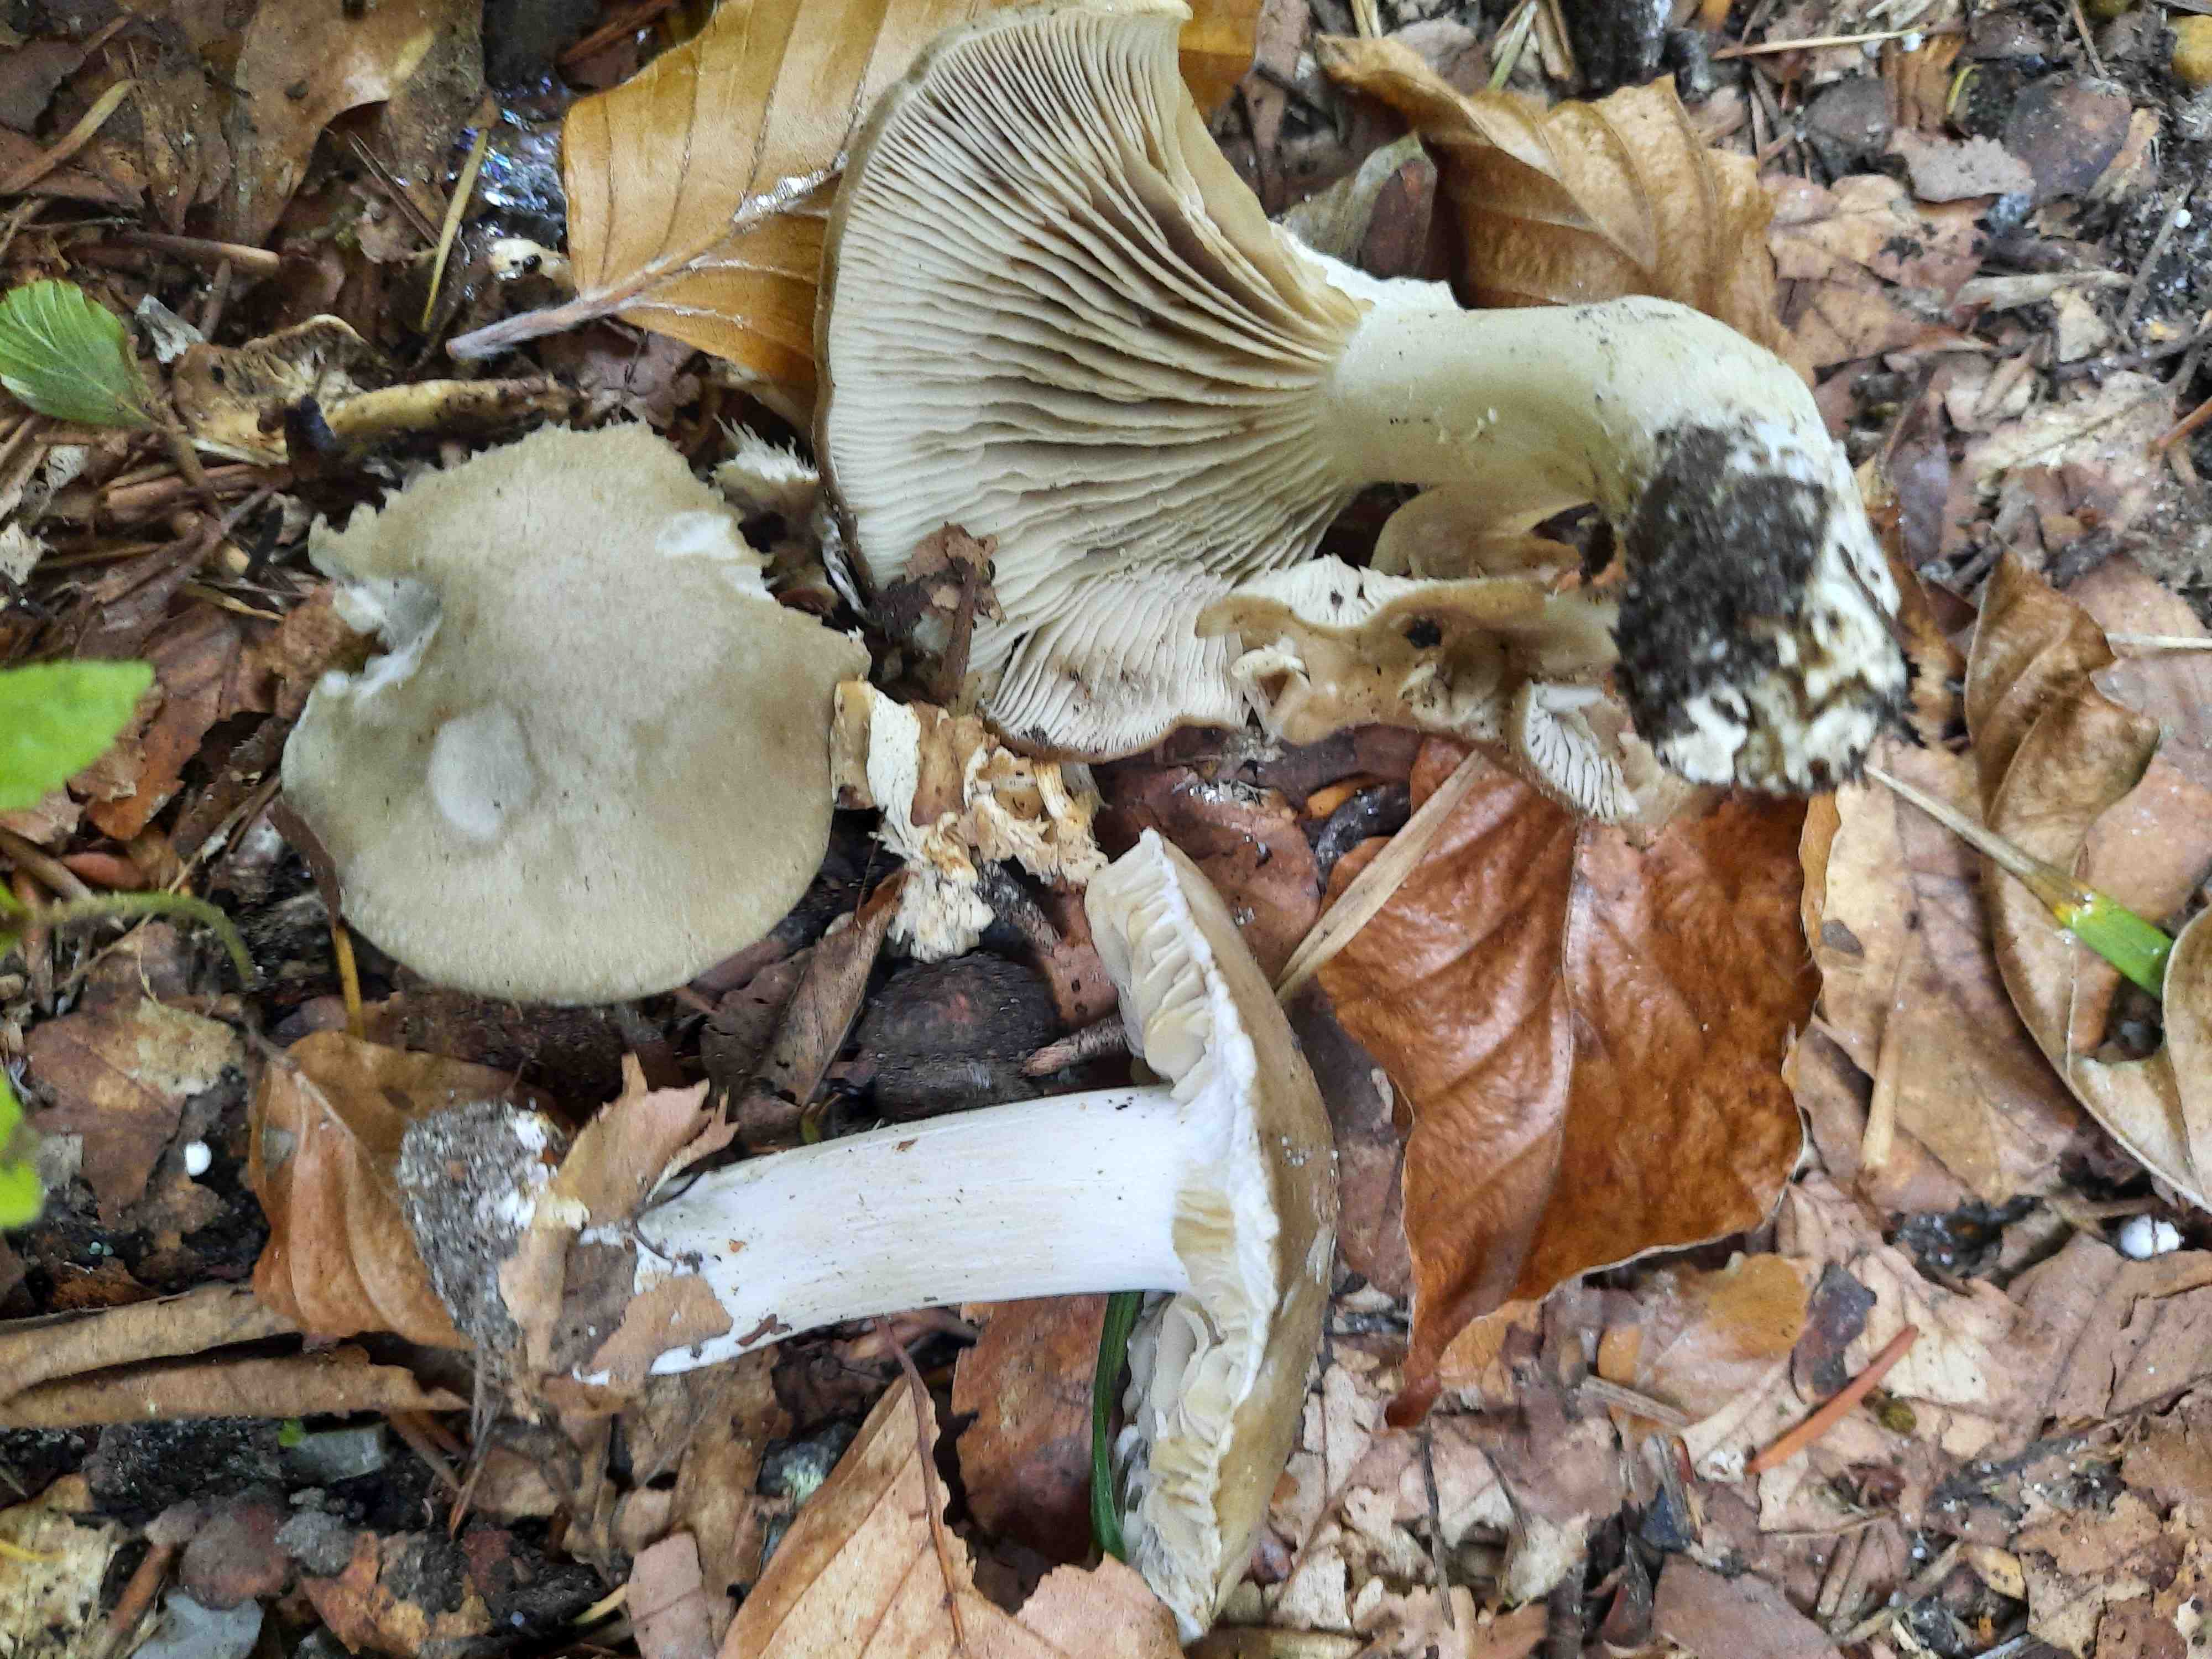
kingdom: Fungi
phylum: Basidiomycota
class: Agaricomycetes
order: Agaricales
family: Lyophyllaceae
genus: Lyophyllum
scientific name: Lyophyllum
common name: gråblad
